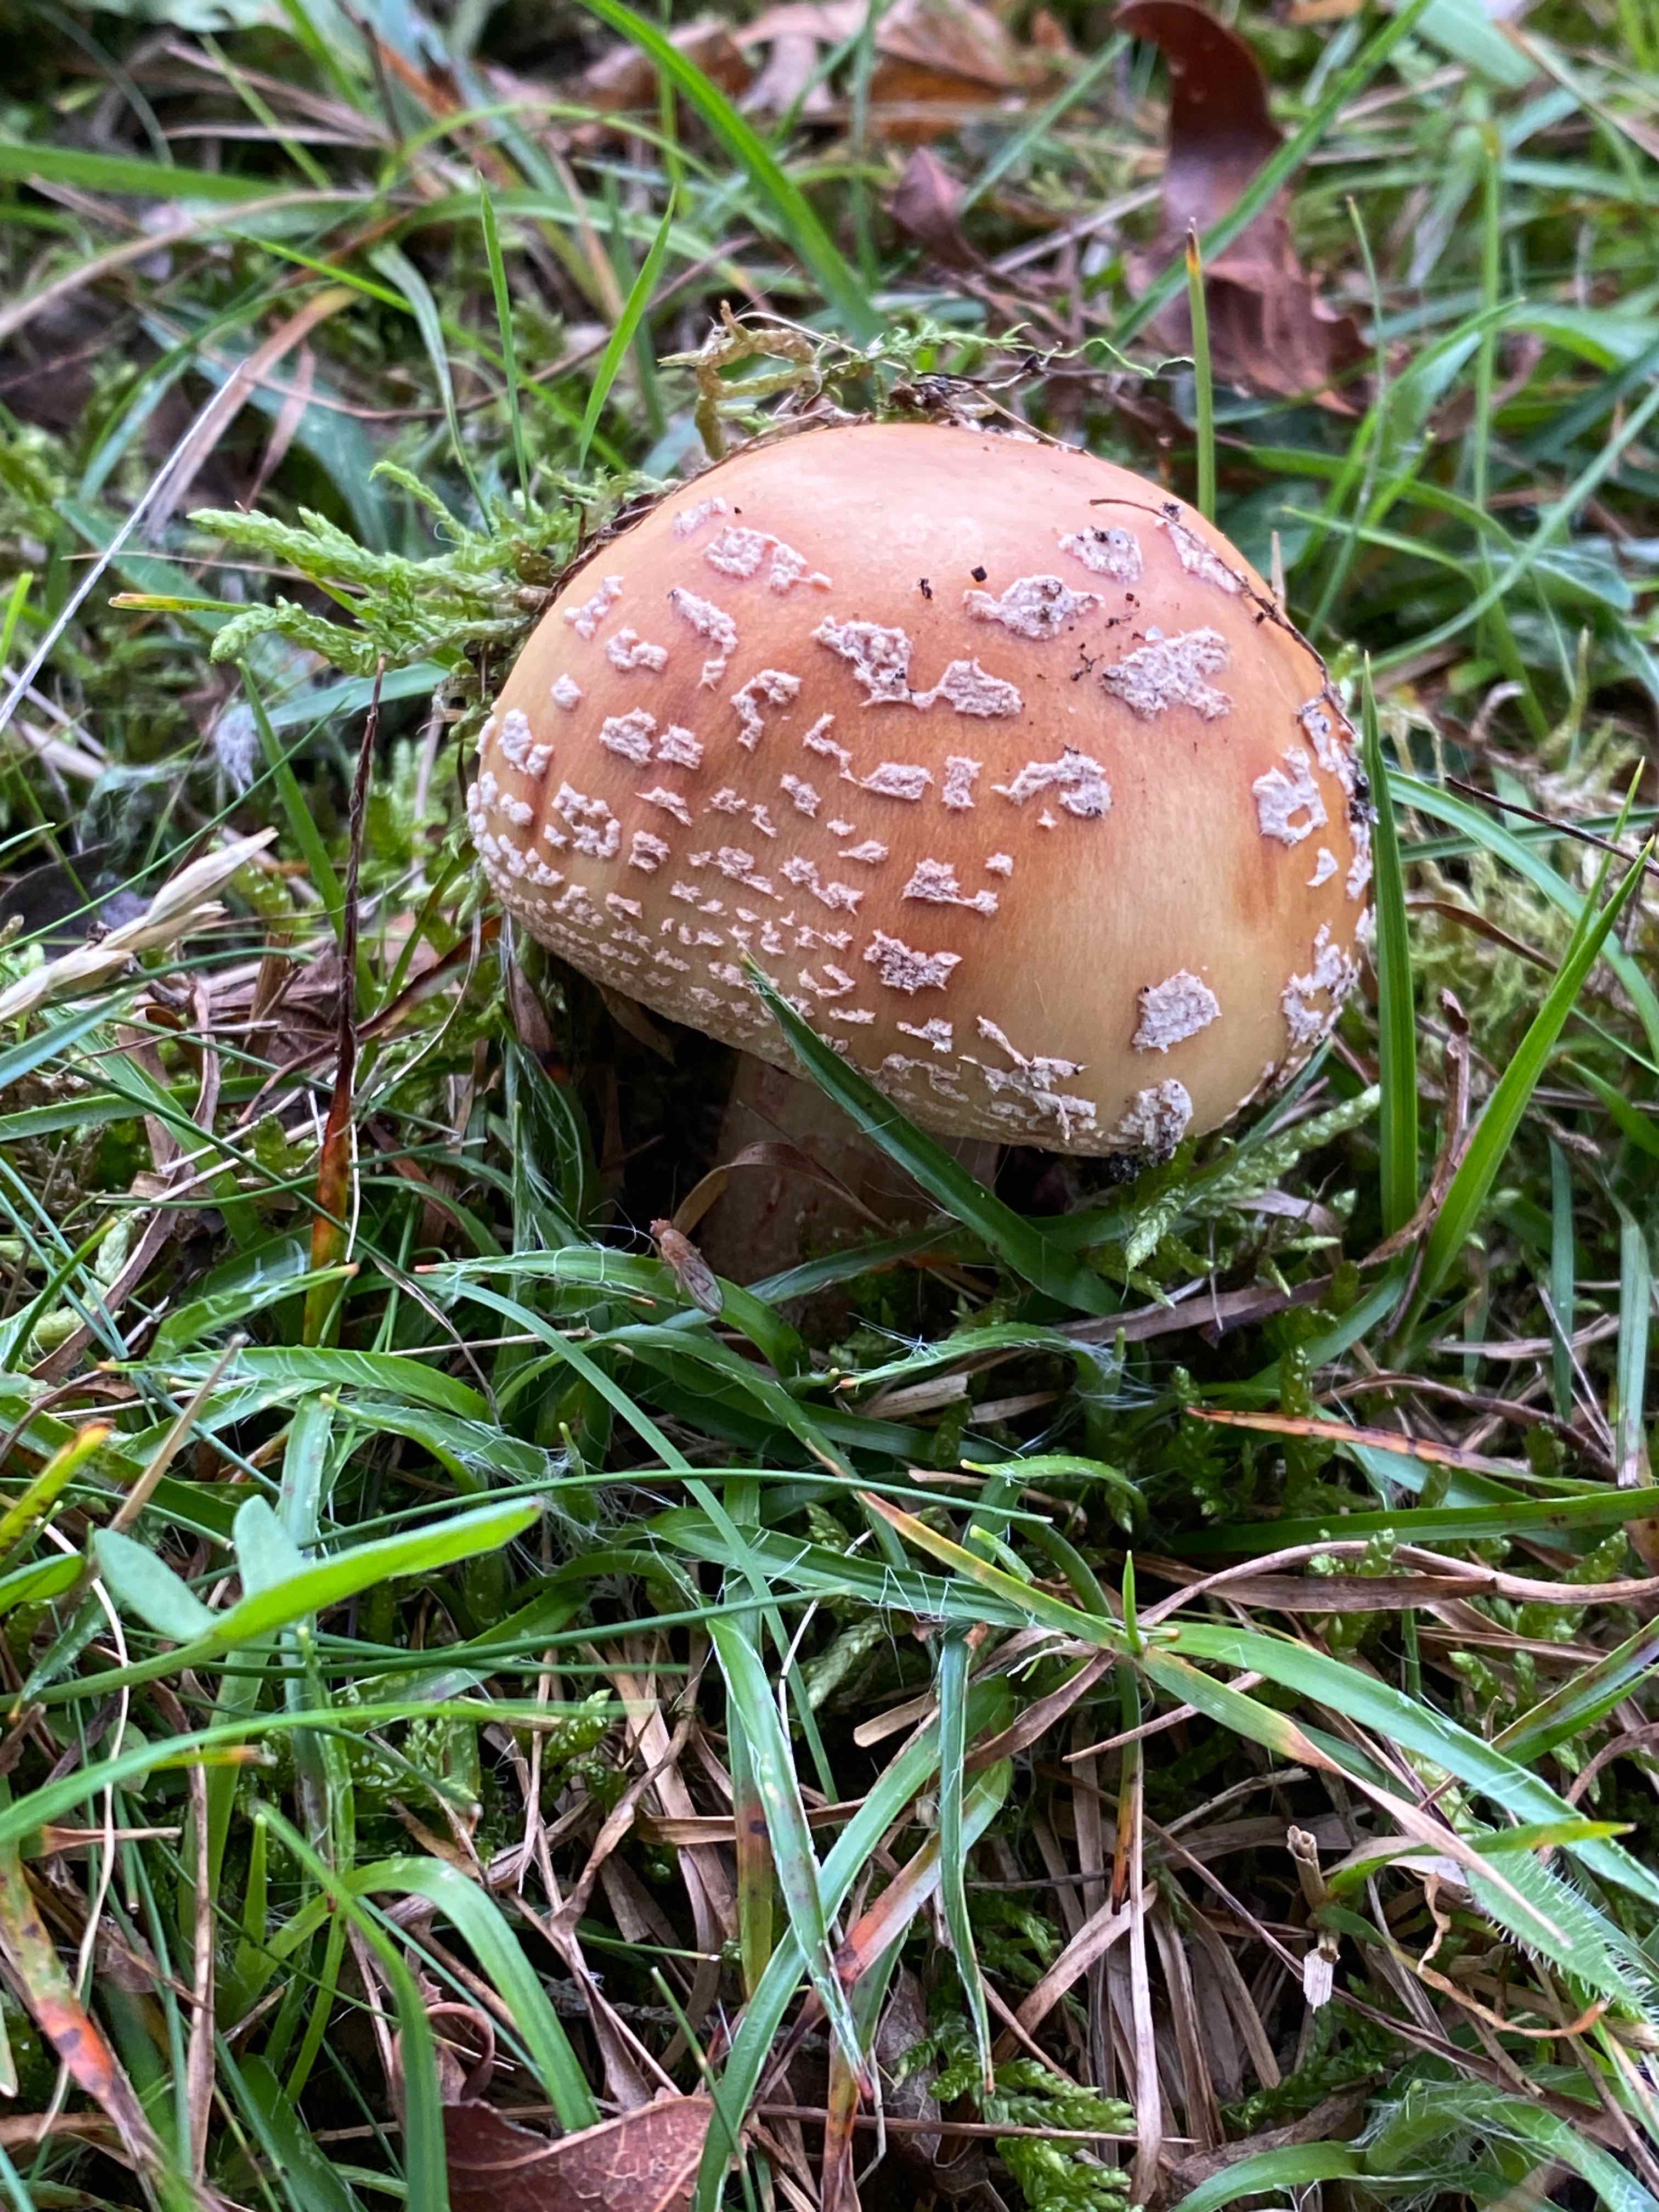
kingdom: Fungi
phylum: Basidiomycota
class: Agaricomycetes
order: Agaricales
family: Amanitaceae
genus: Amanita
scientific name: Amanita rubescens
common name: rødmende fluesvamp
